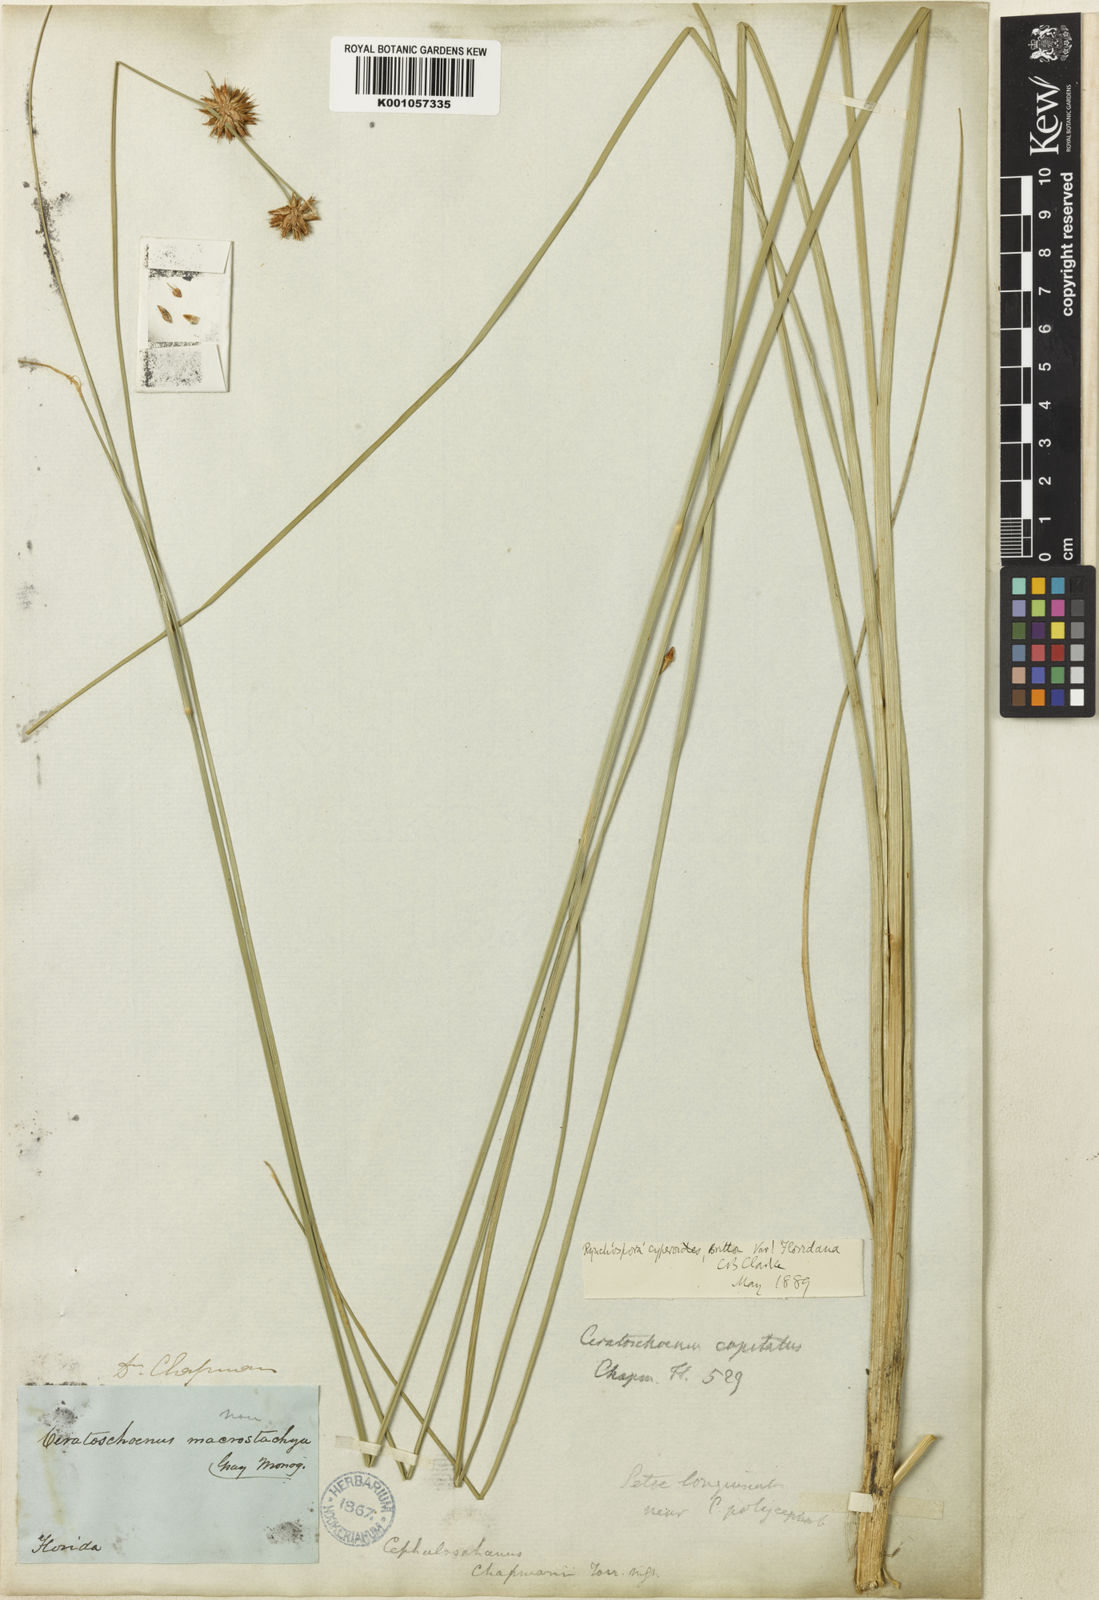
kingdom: Plantae
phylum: Tracheophyta
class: Liliopsida
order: Poales
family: Cyperaceae
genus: Rhynchospora
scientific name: Rhynchospora holoschoenoides
